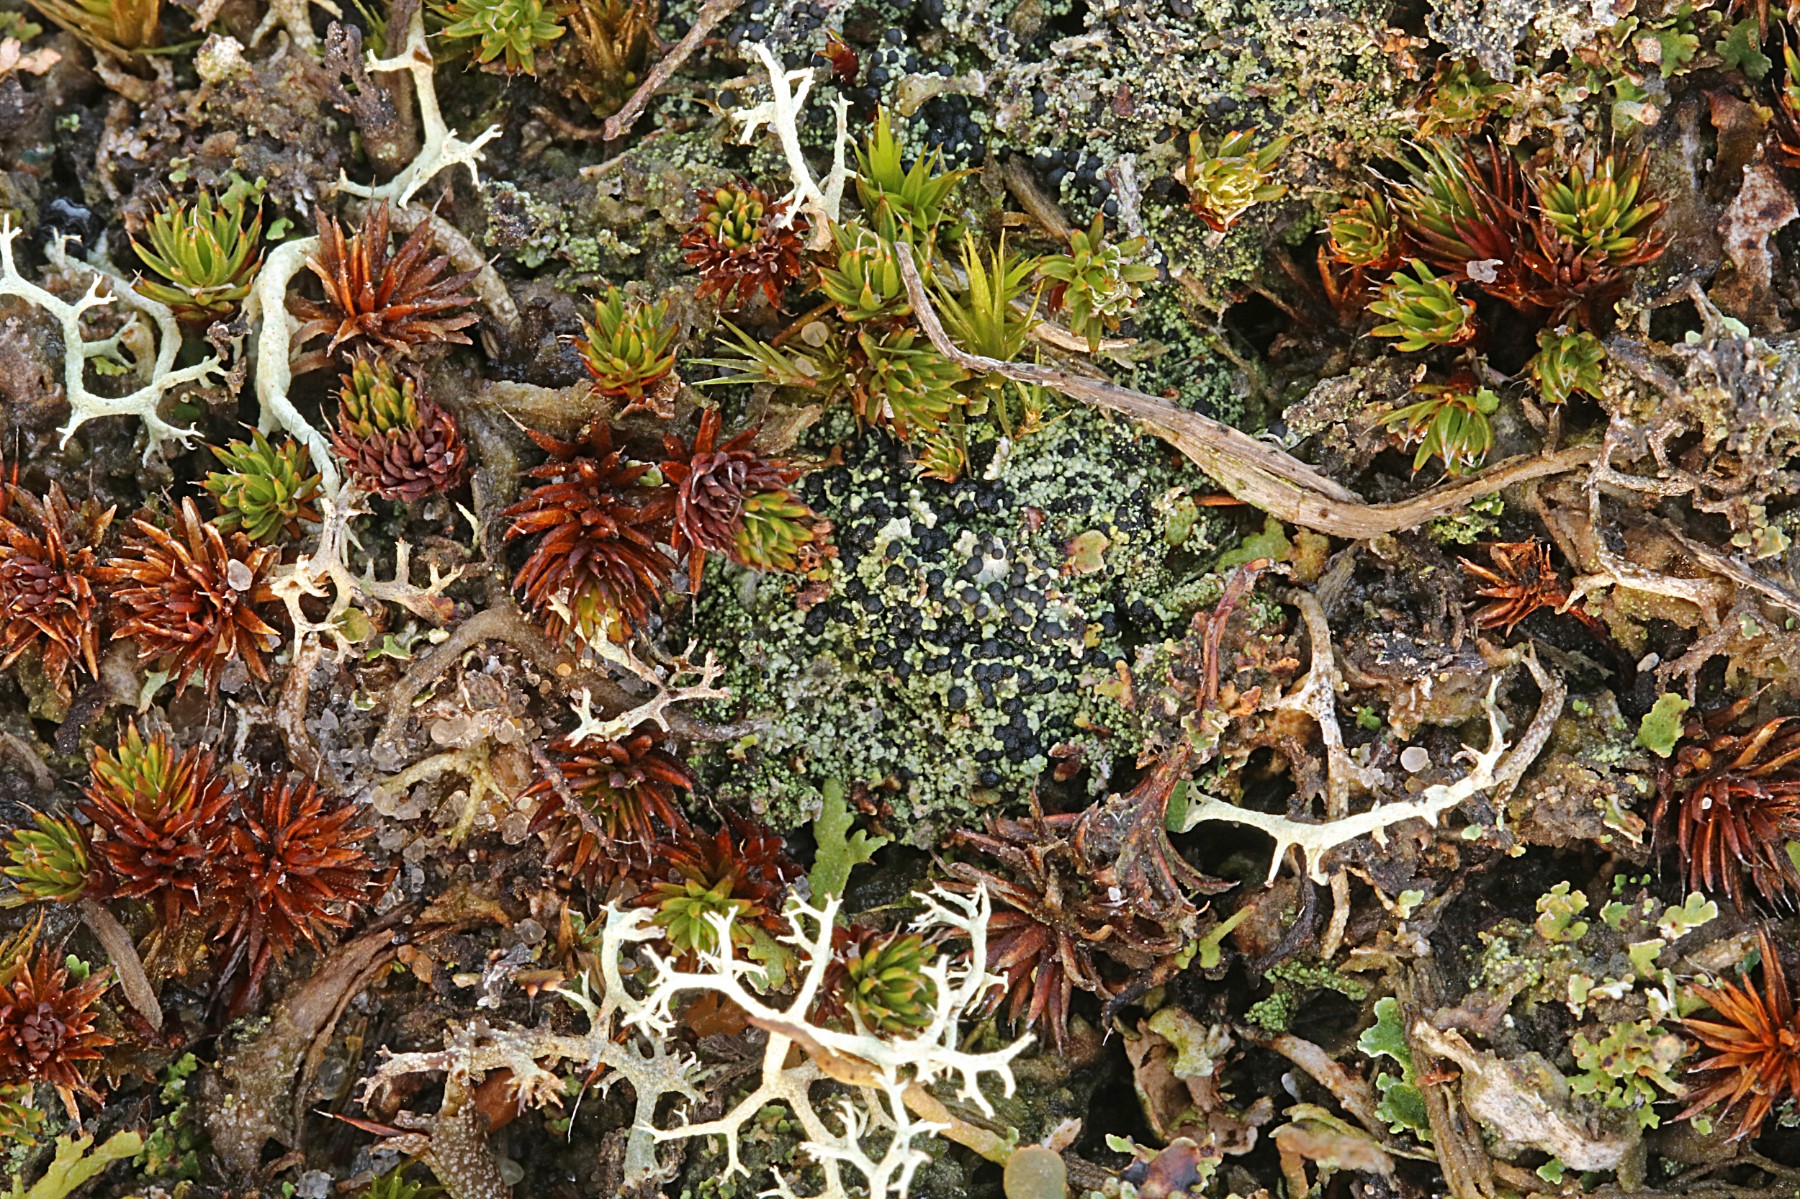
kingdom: Fungi
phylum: Ascomycota
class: Lecanoromycetes
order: Lecanorales
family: Byssolomataceae
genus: Micarea
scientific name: Micarea lignaria
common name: tørve-knaplav
